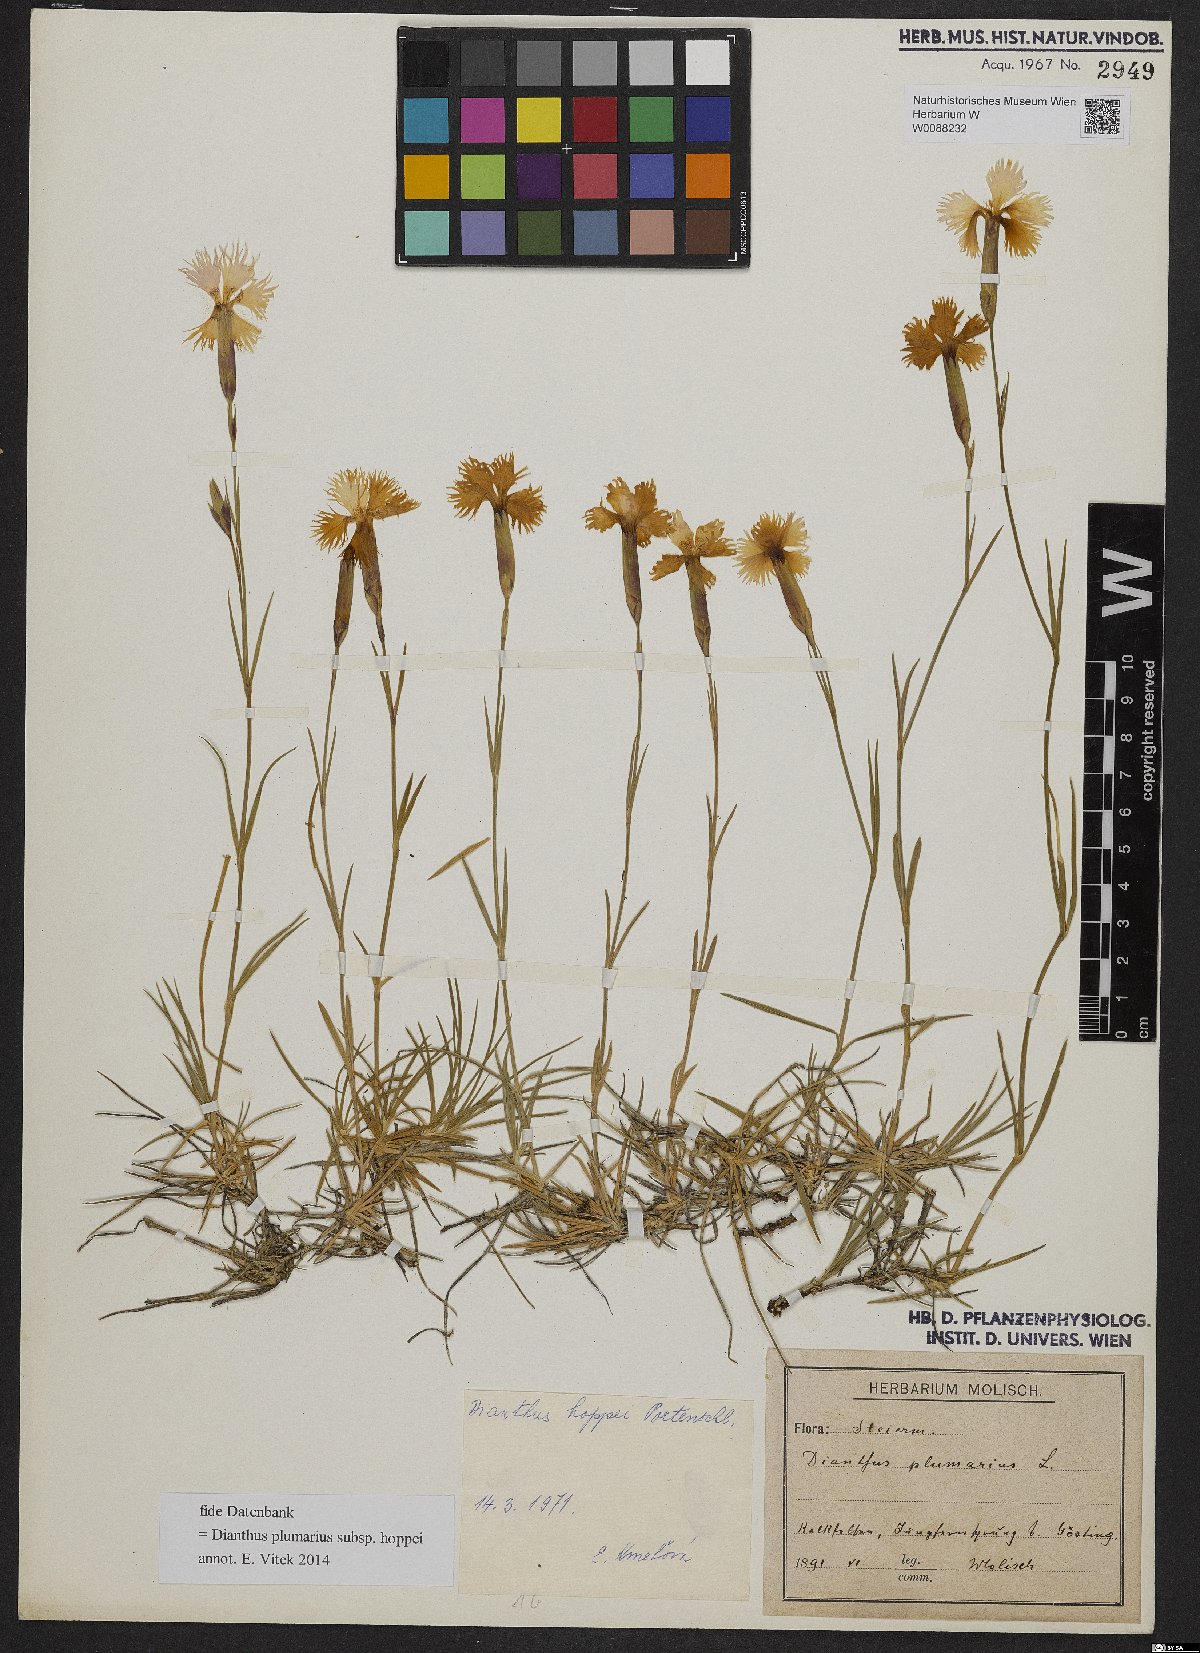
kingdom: Plantae
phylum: Tracheophyta
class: Magnoliopsida
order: Caryophyllales
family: Caryophyllaceae
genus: Dianthus
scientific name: Dianthus plumarius
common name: Pink
